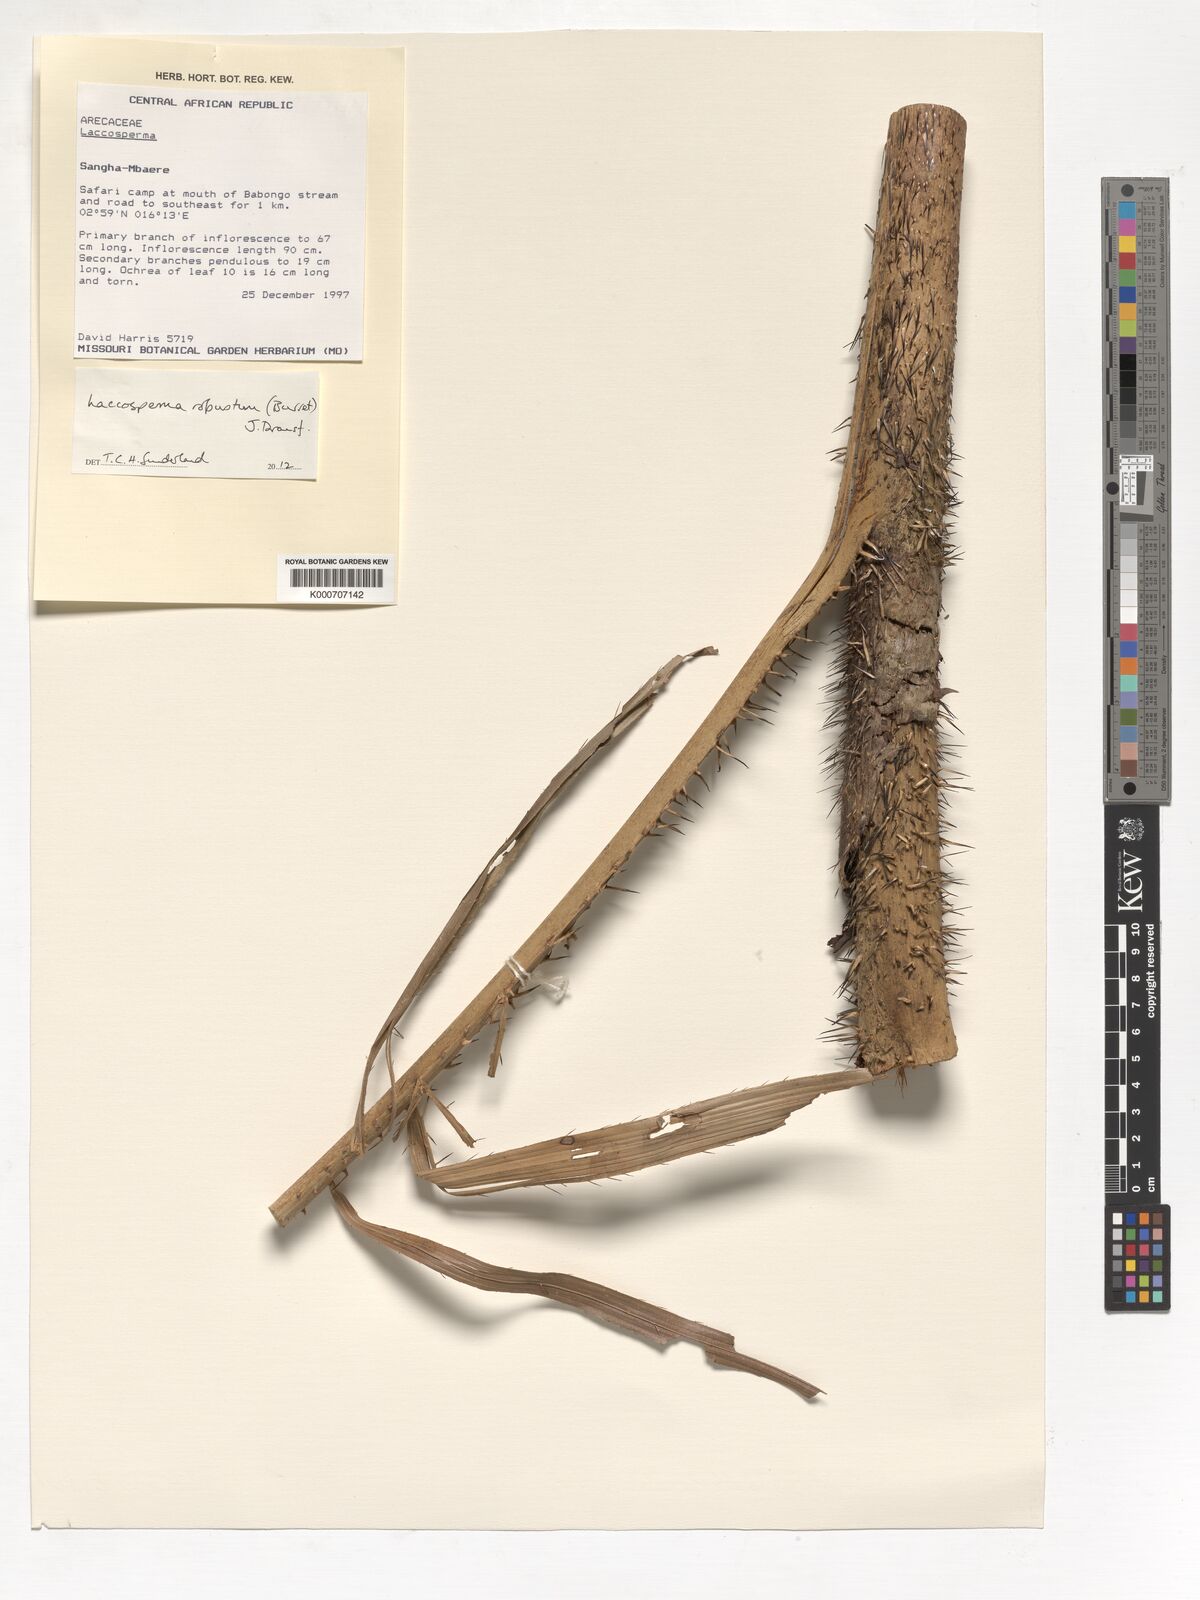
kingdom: Plantae
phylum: Tracheophyta
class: Liliopsida
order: Arecales
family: Arecaceae
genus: Laccosperma
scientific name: Laccosperma robustum
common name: Rattan
